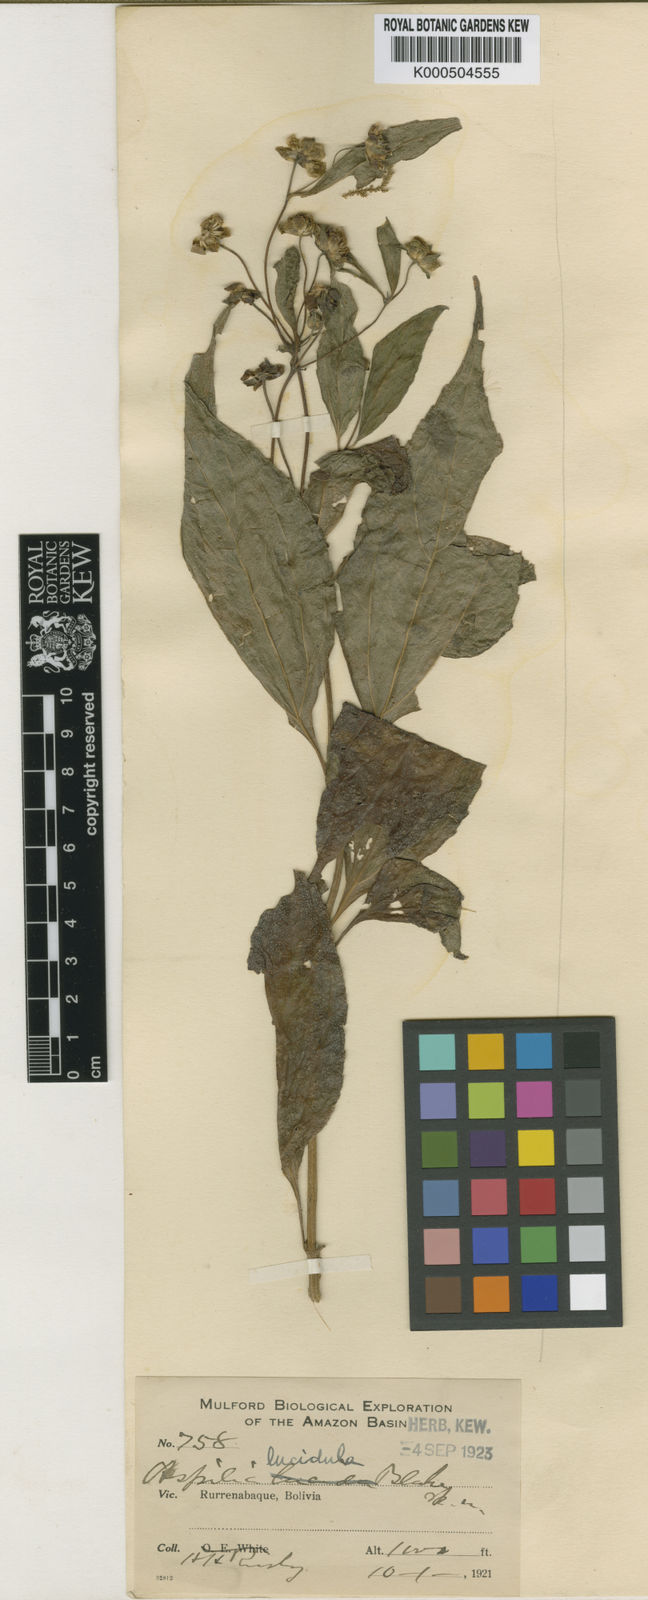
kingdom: Plantae
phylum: Tracheophyta
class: Magnoliopsida
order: Asterales
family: Asteraceae
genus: Elaphandra
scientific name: Elaphandra ulei
